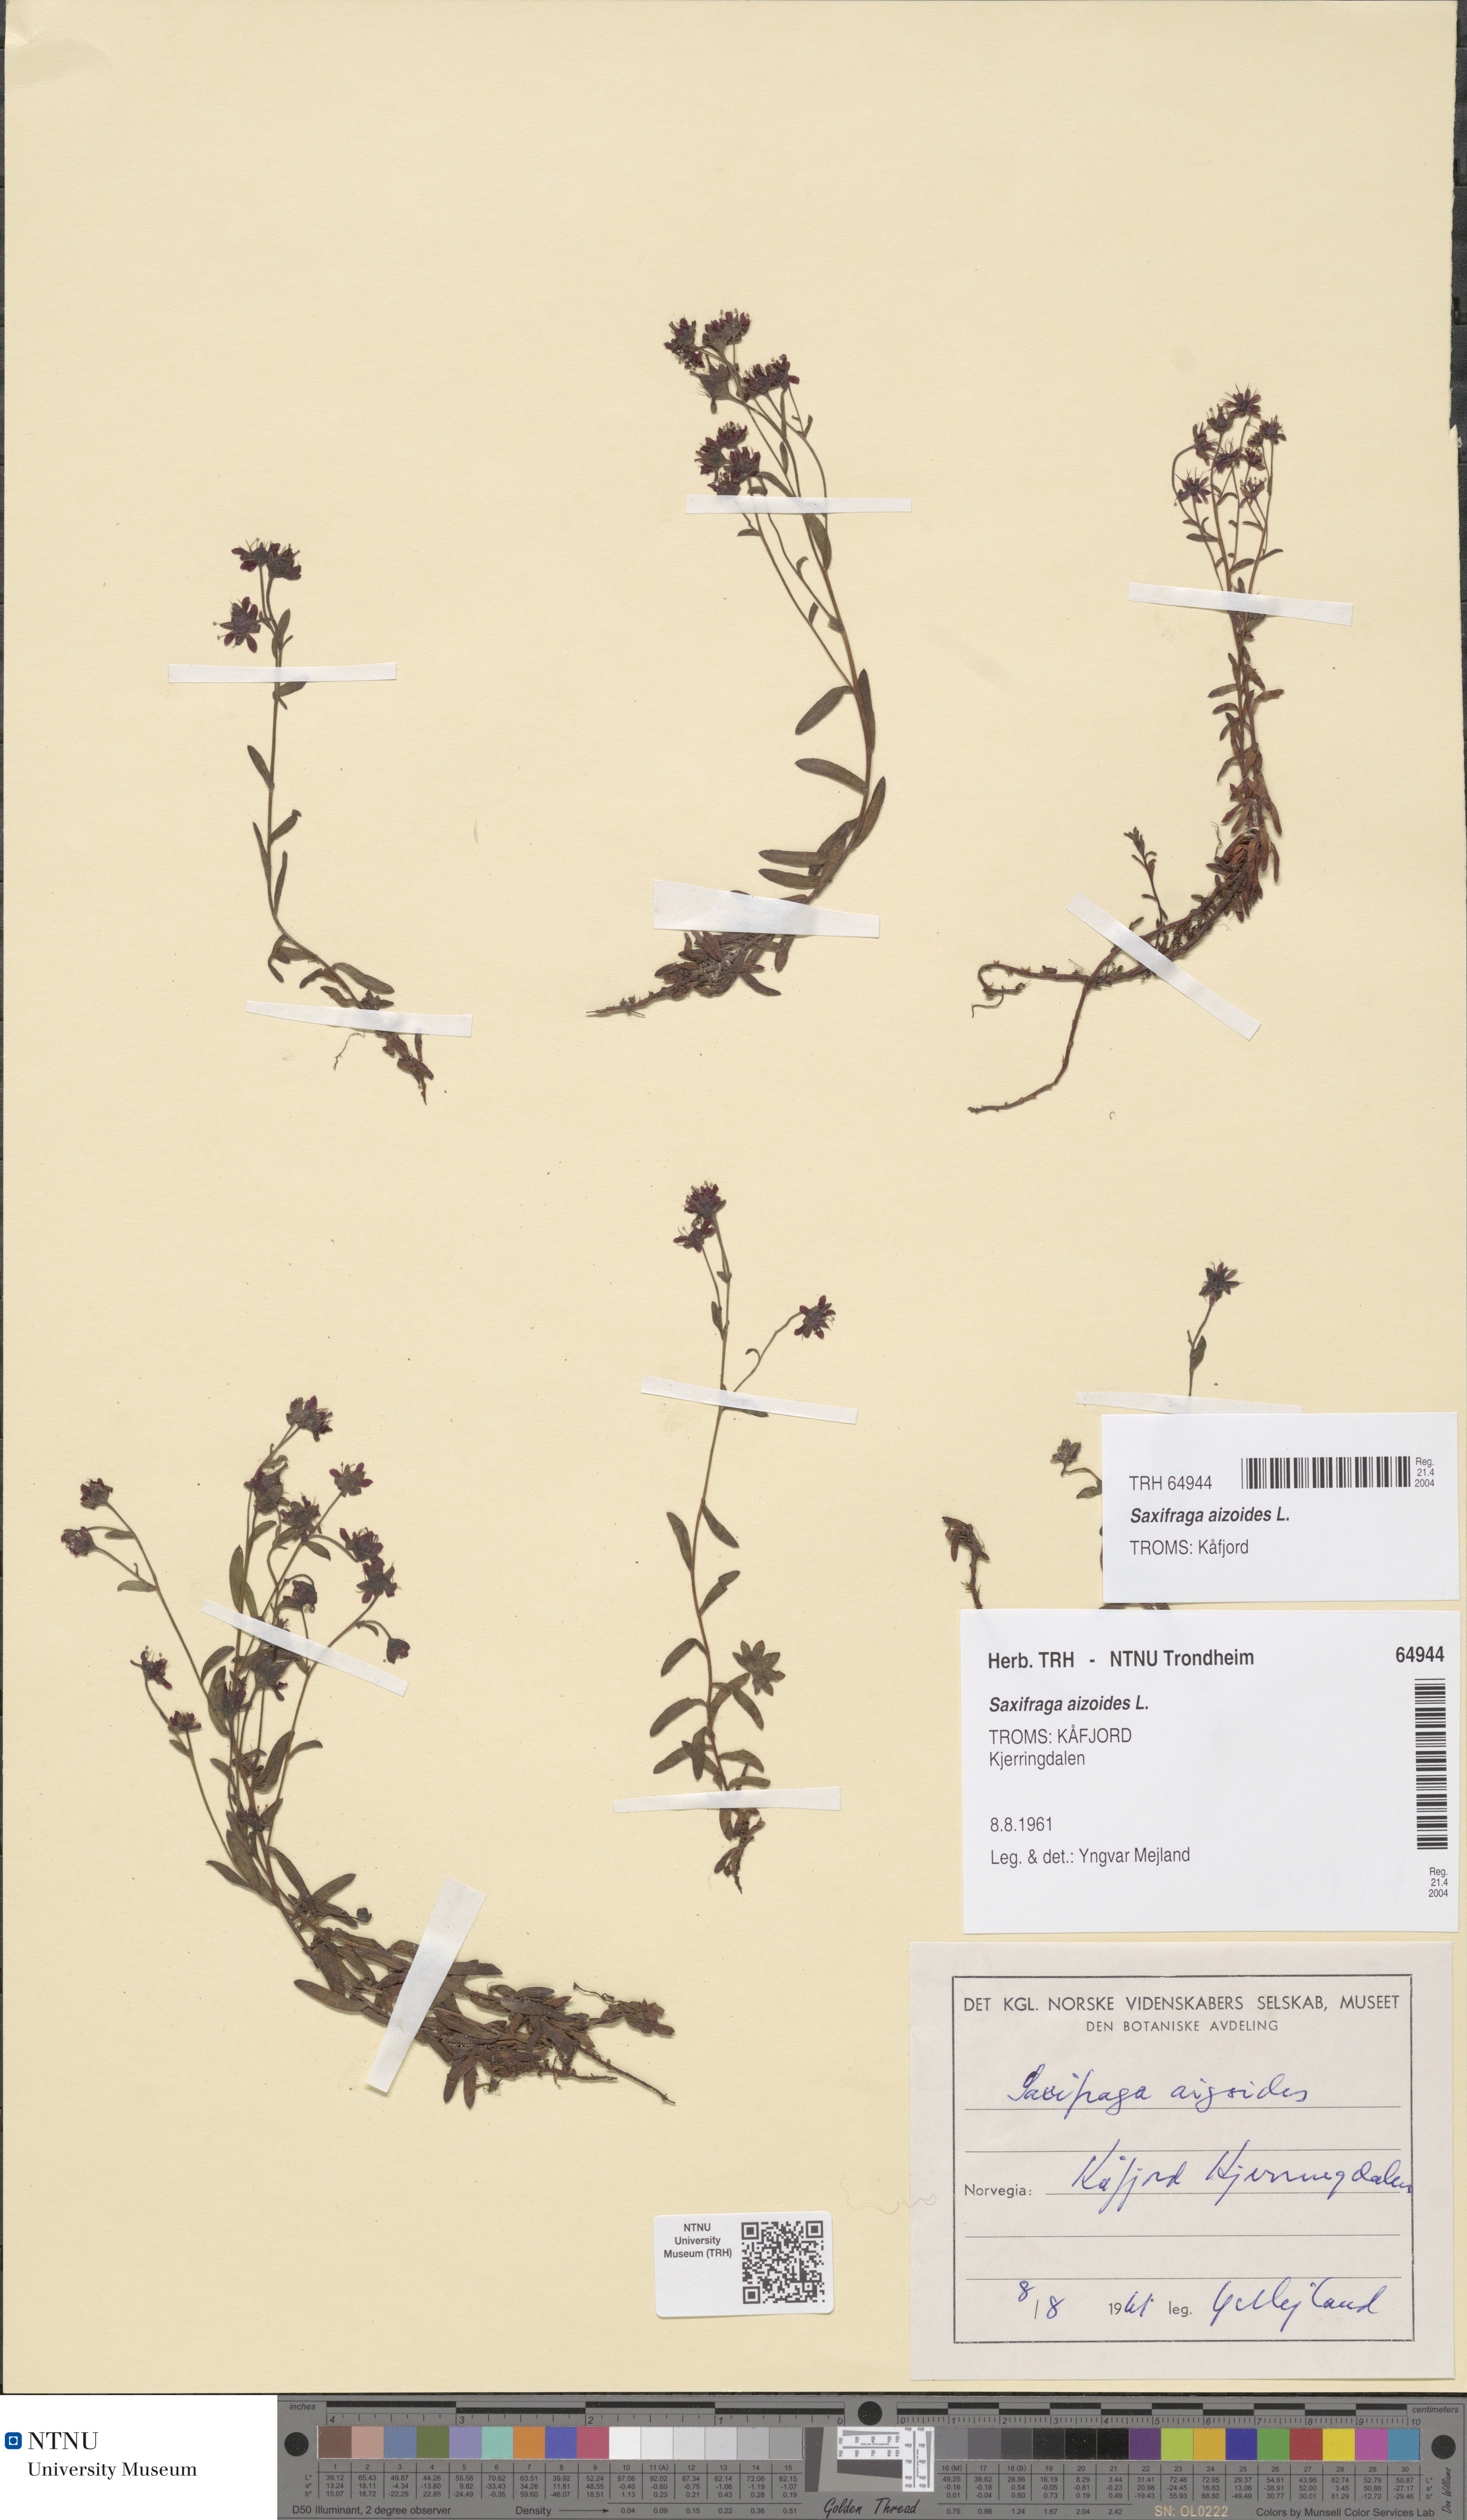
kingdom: Plantae
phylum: Tracheophyta
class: Magnoliopsida
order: Saxifragales
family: Saxifragaceae
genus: Saxifraga
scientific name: Saxifraga aizoides
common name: Yellow mountain saxifrage
